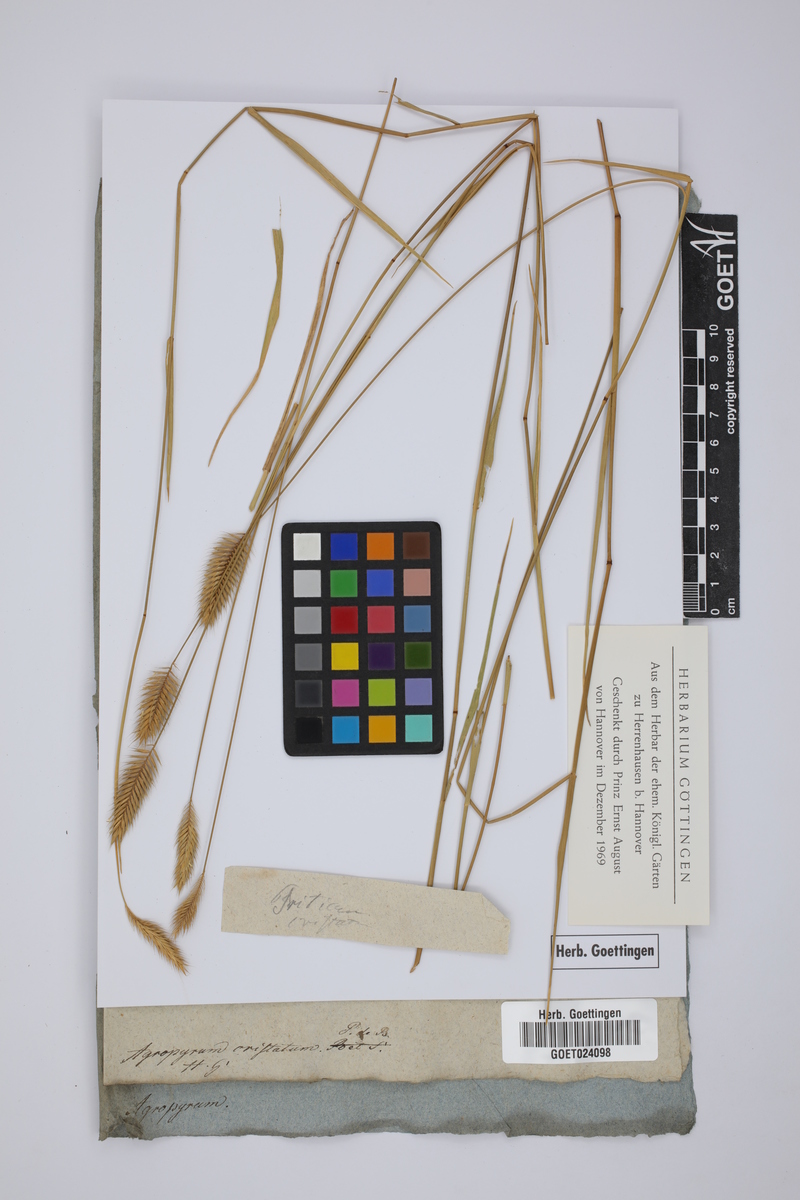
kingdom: Plantae
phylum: Tracheophyta
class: Liliopsida
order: Poales
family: Poaceae
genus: Agropyron
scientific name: Agropyron cristatum
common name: Crested wheatgrass
